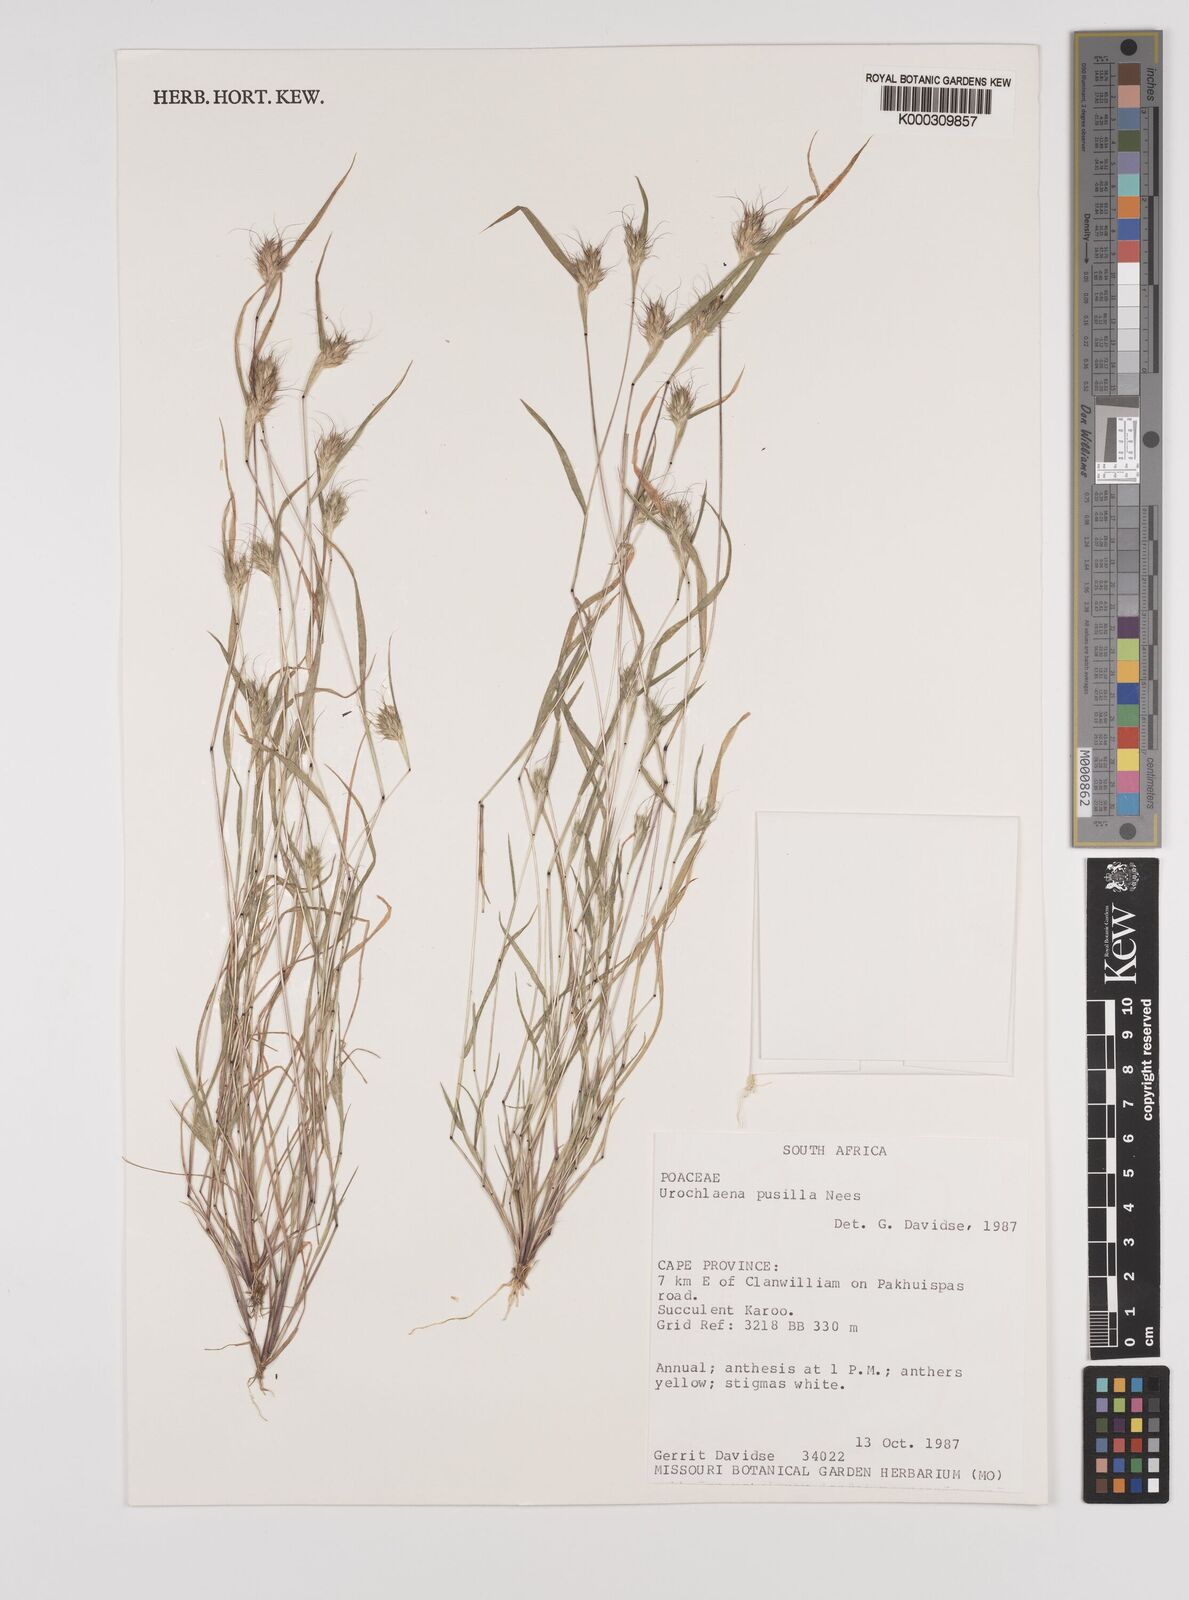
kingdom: Plantae
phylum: Tracheophyta
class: Liliopsida
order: Poales
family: Poaceae
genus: Tribolium
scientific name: Tribolium pusillum
